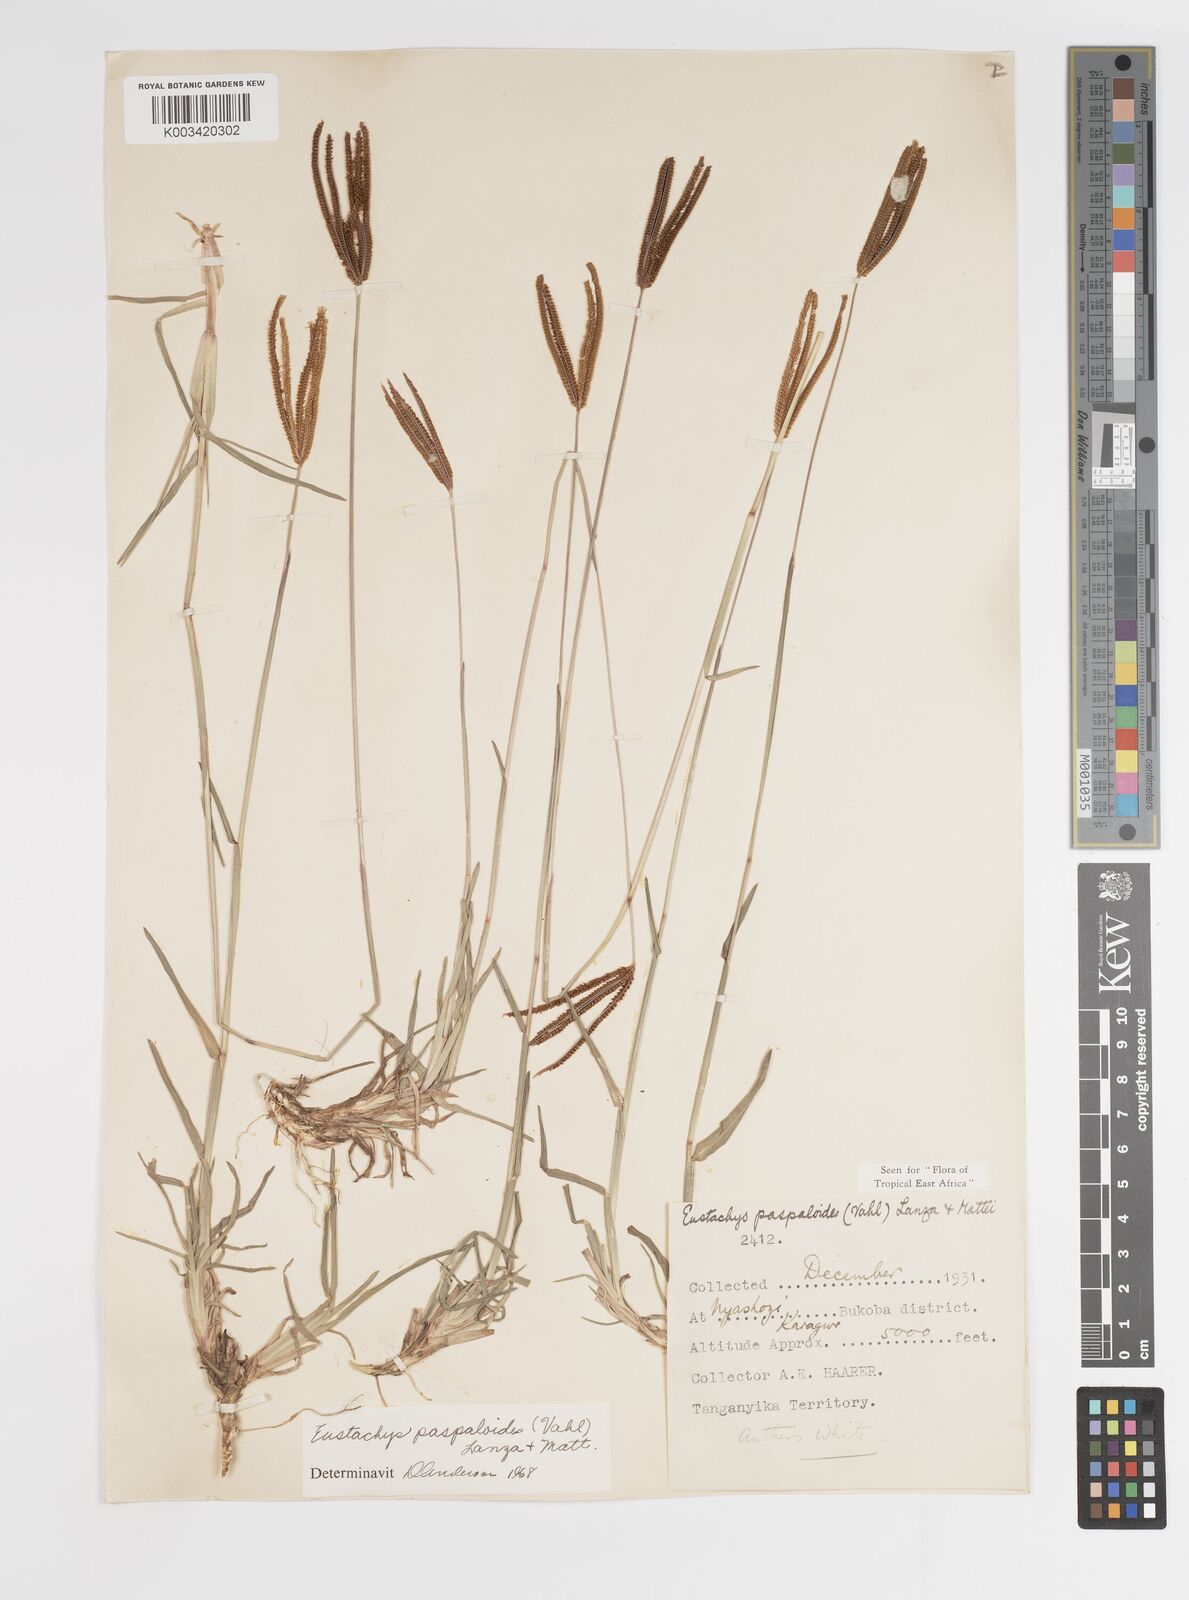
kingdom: Plantae
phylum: Tracheophyta
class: Liliopsida
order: Poales
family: Poaceae
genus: Eustachys
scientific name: Eustachys
